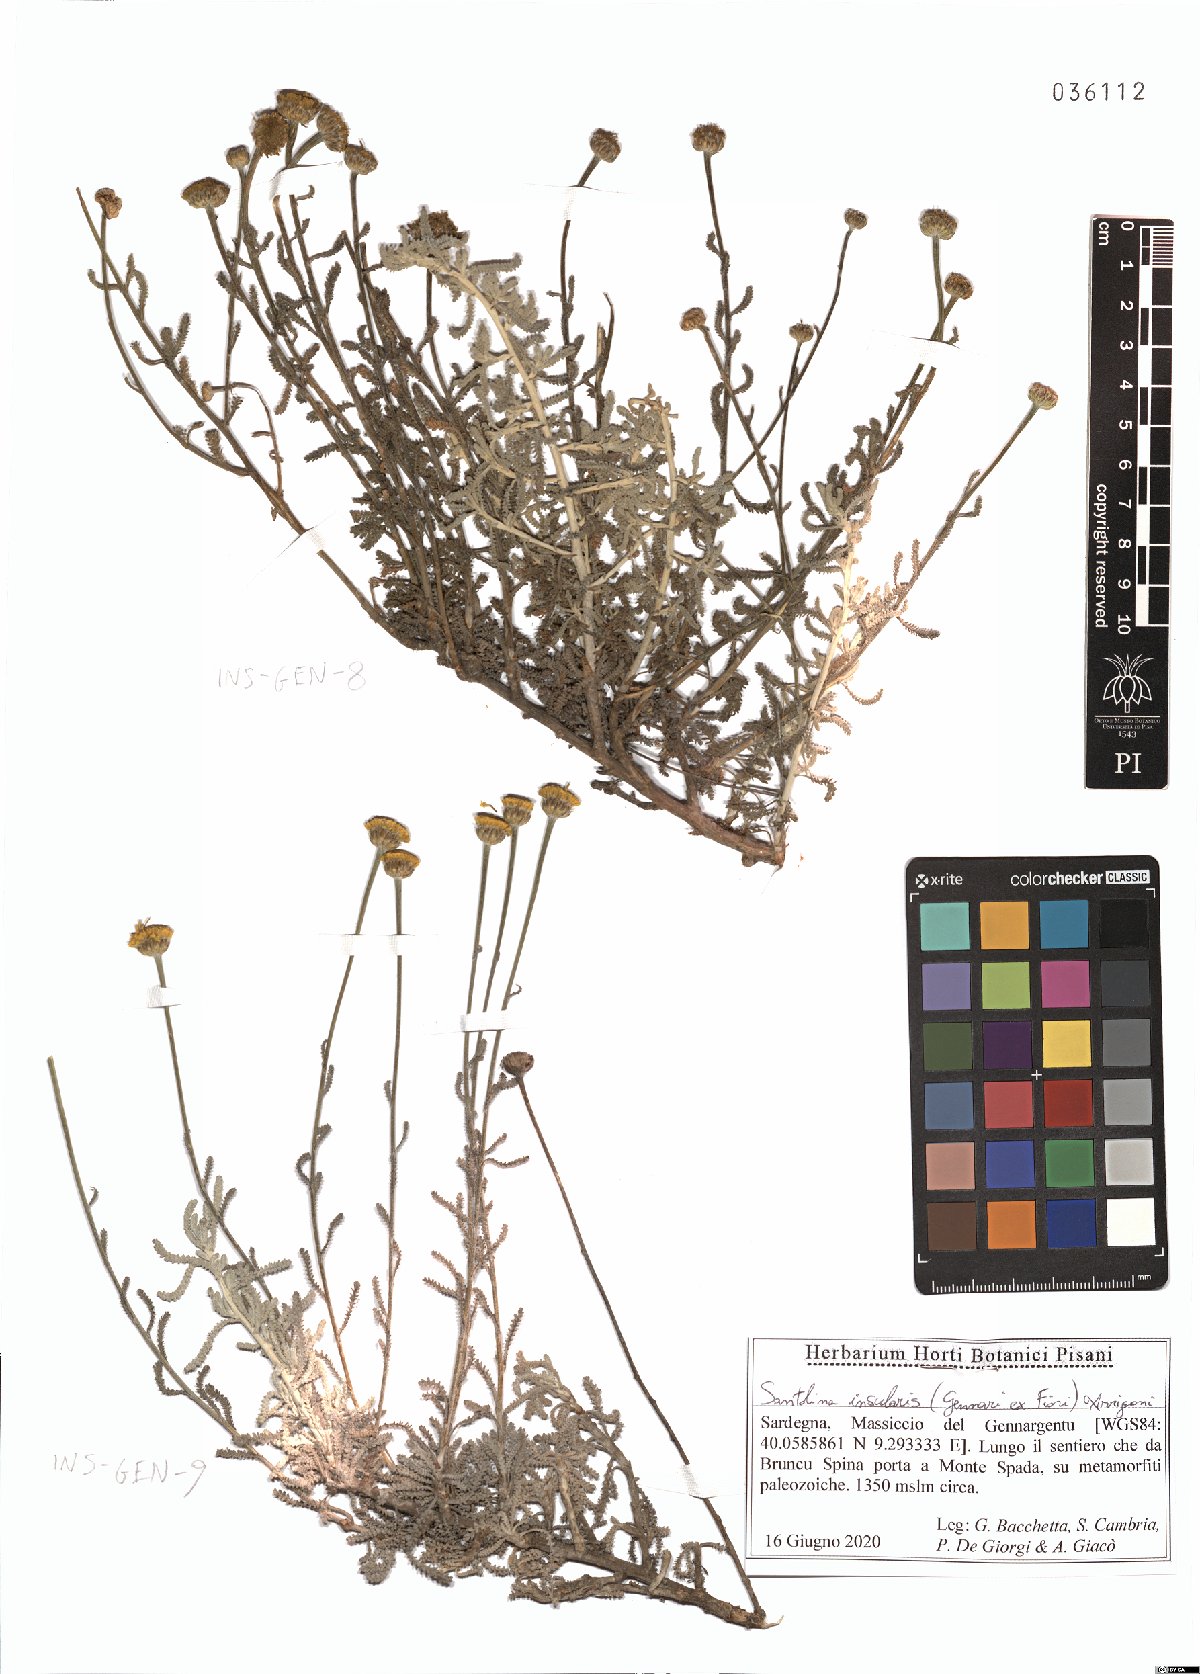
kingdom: Plantae
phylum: Tracheophyta
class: Magnoliopsida
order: Asterales
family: Asteraceae
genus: Santolina
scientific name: Santolina insularis
